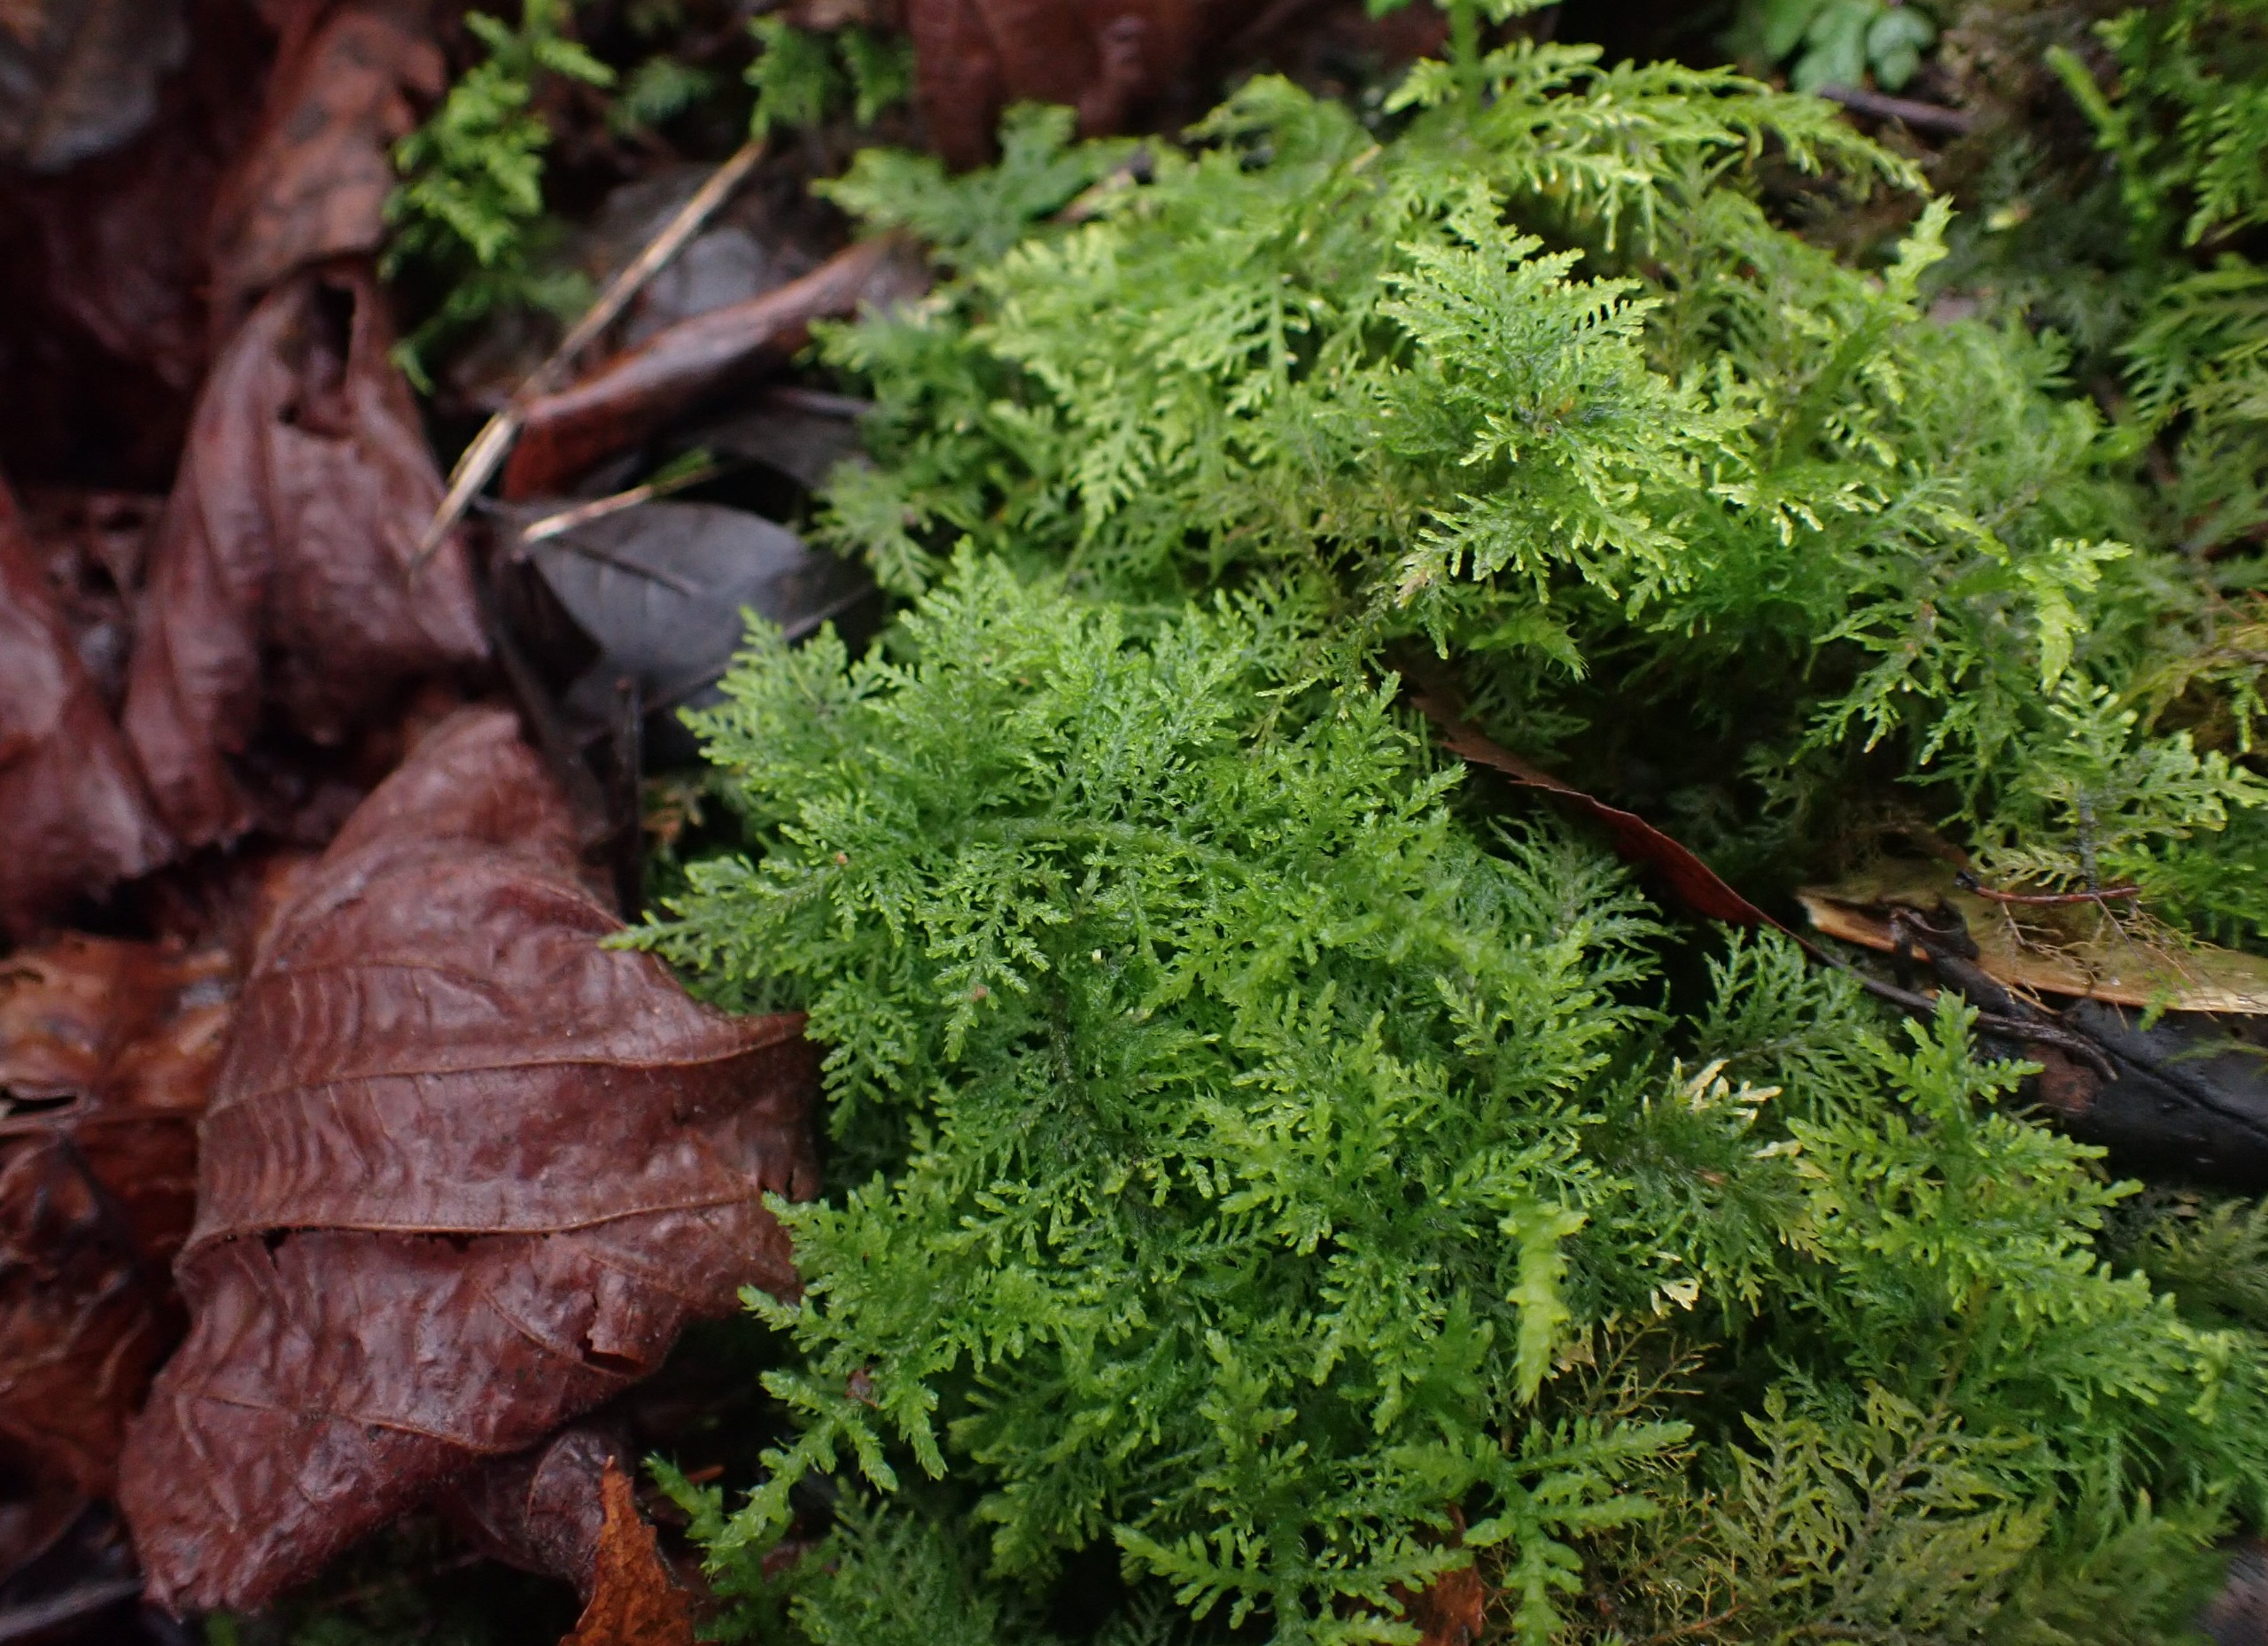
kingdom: Plantae
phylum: Bryophyta
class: Bryopsida
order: Hypnales
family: Thuidiaceae
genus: Thuidium
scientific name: Thuidium tamariscinum
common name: Pryd-bregnemos
